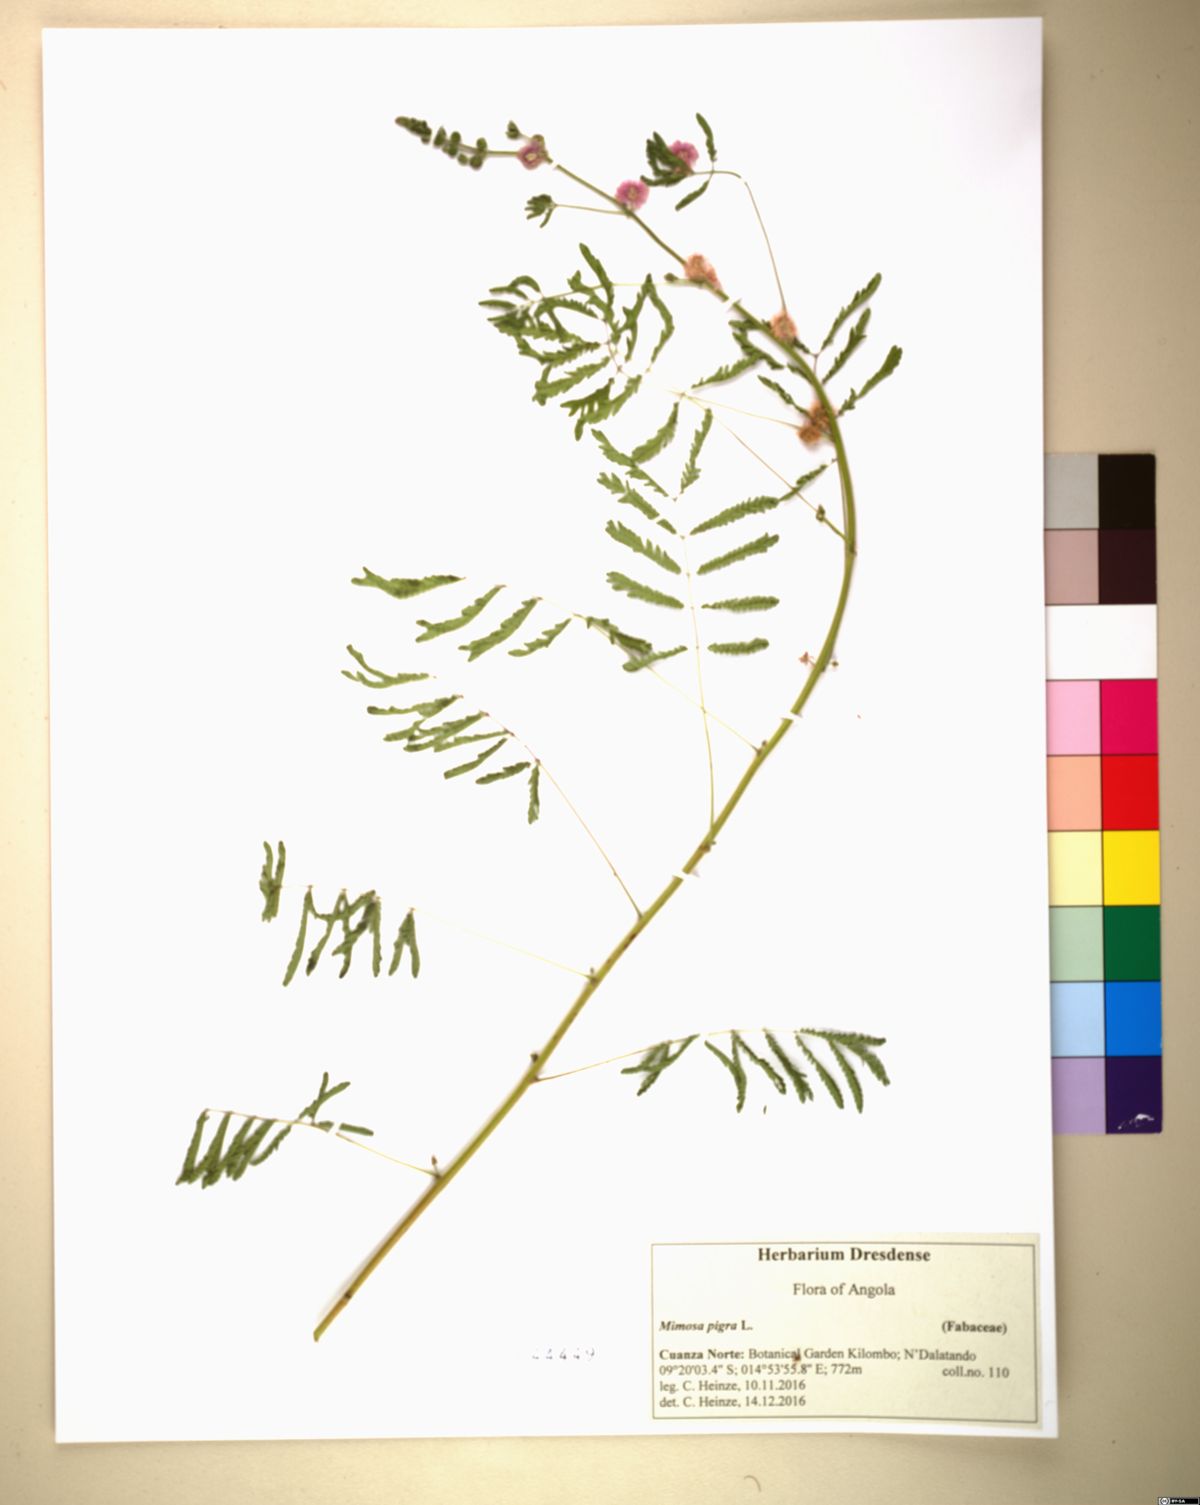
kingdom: Plantae
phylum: Tracheophyta
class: Magnoliopsida
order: Fabales
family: Fabaceae
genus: Mimosa
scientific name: Mimosa diplotricha
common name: Giant sensitive-plant
